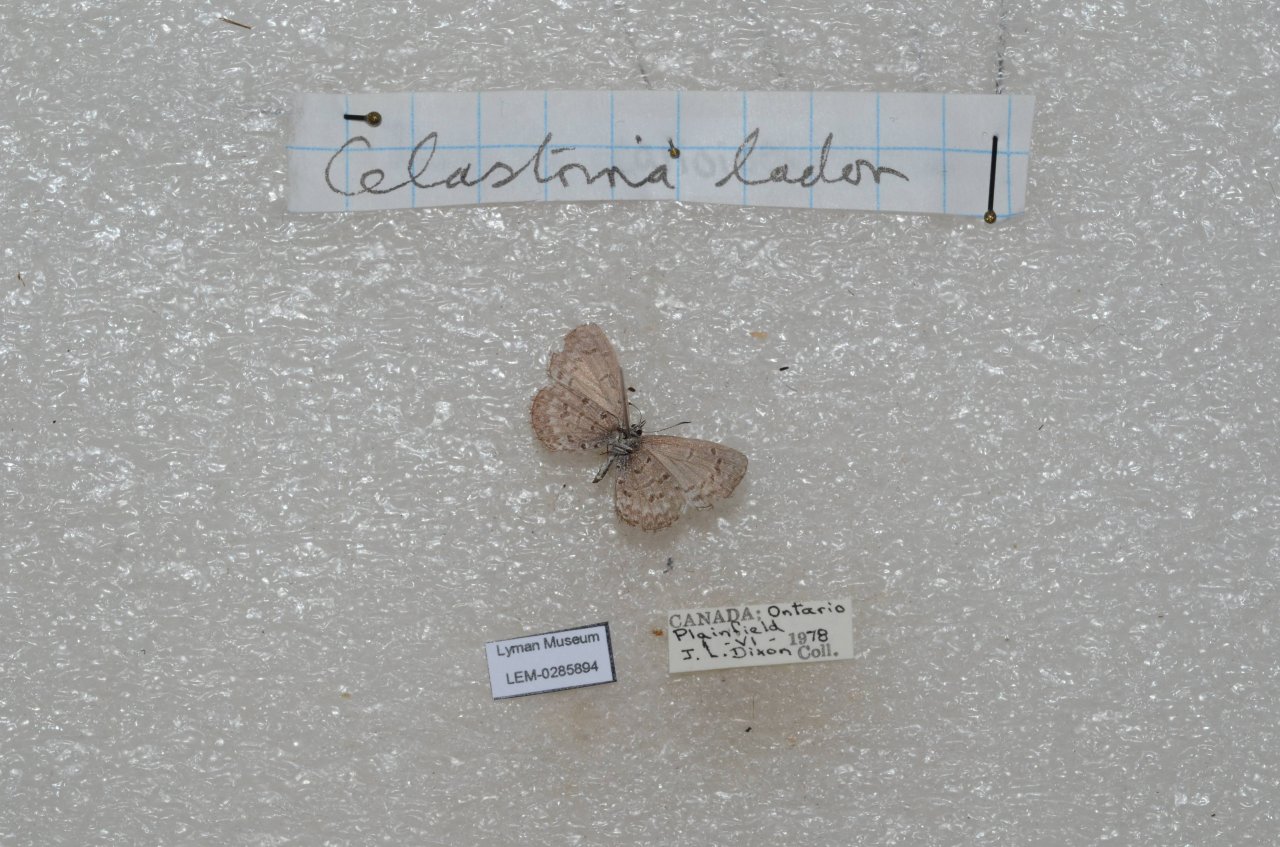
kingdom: Animalia
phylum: Arthropoda
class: Insecta
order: Lepidoptera
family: Lycaenidae
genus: Celastrina
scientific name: Celastrina lucia
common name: Northern Spring Azure
